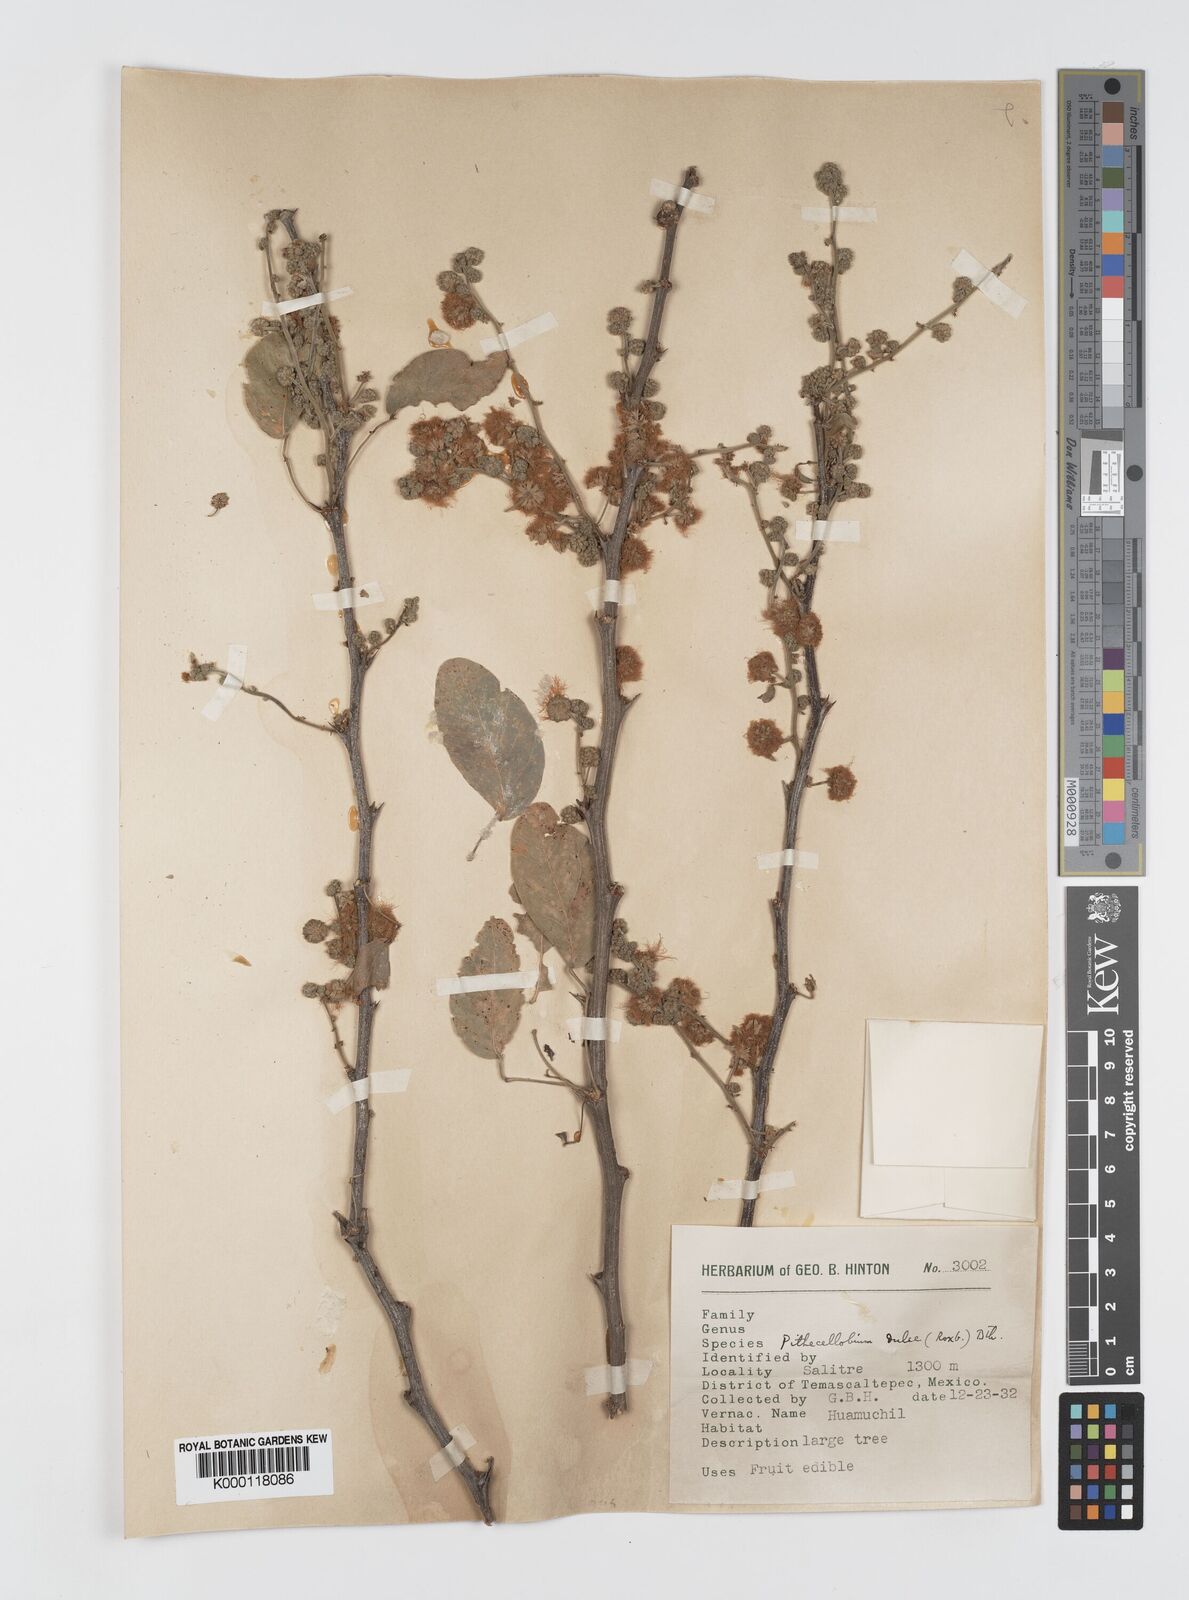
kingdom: Plantae
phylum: Tracheophyta
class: Magnoliopsida
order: Fabales
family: Fabaceae
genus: Pithecellobium
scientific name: Pithecellobium dulce
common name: Monkeypod
